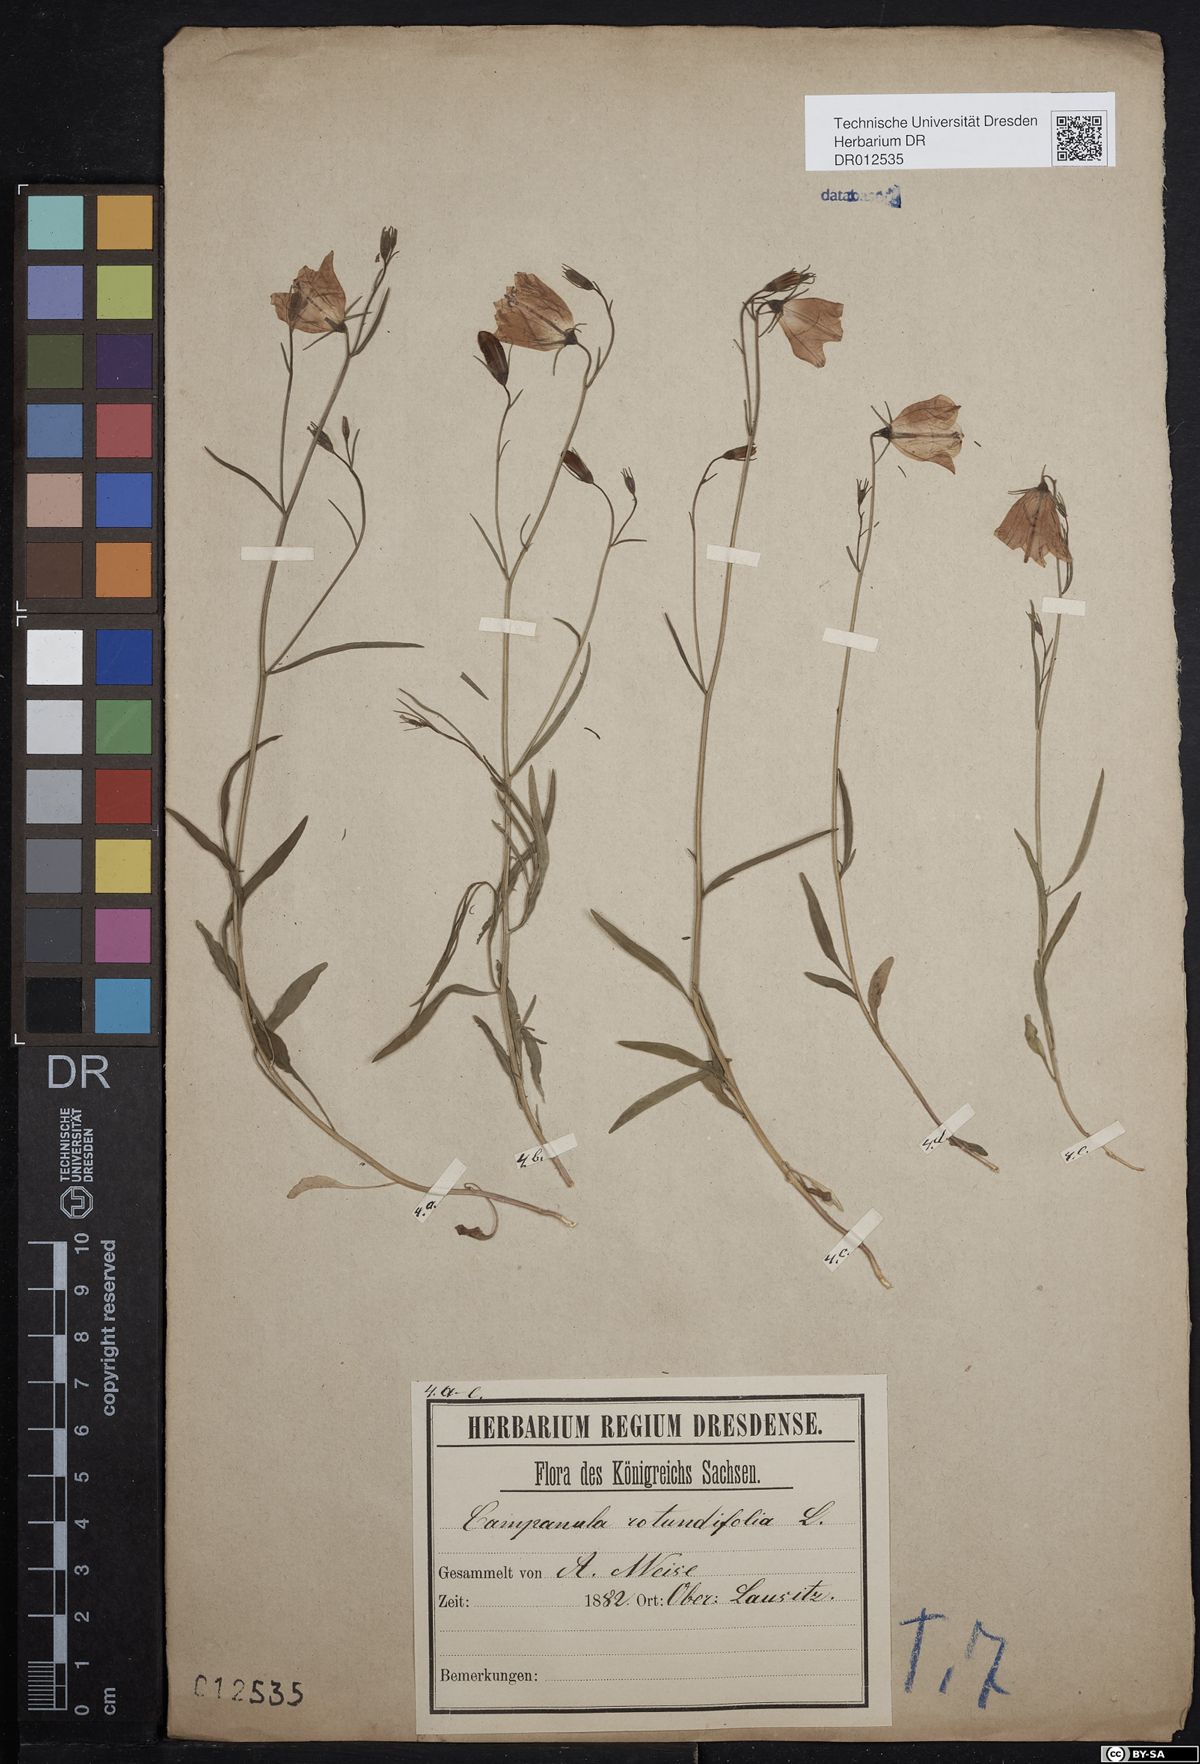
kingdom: Plantae
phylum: Tracheophyta
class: Magnoliopsida
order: Asterales
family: Campanulaceae
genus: Campanula
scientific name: Campanula rotundifolia
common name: Harebell
